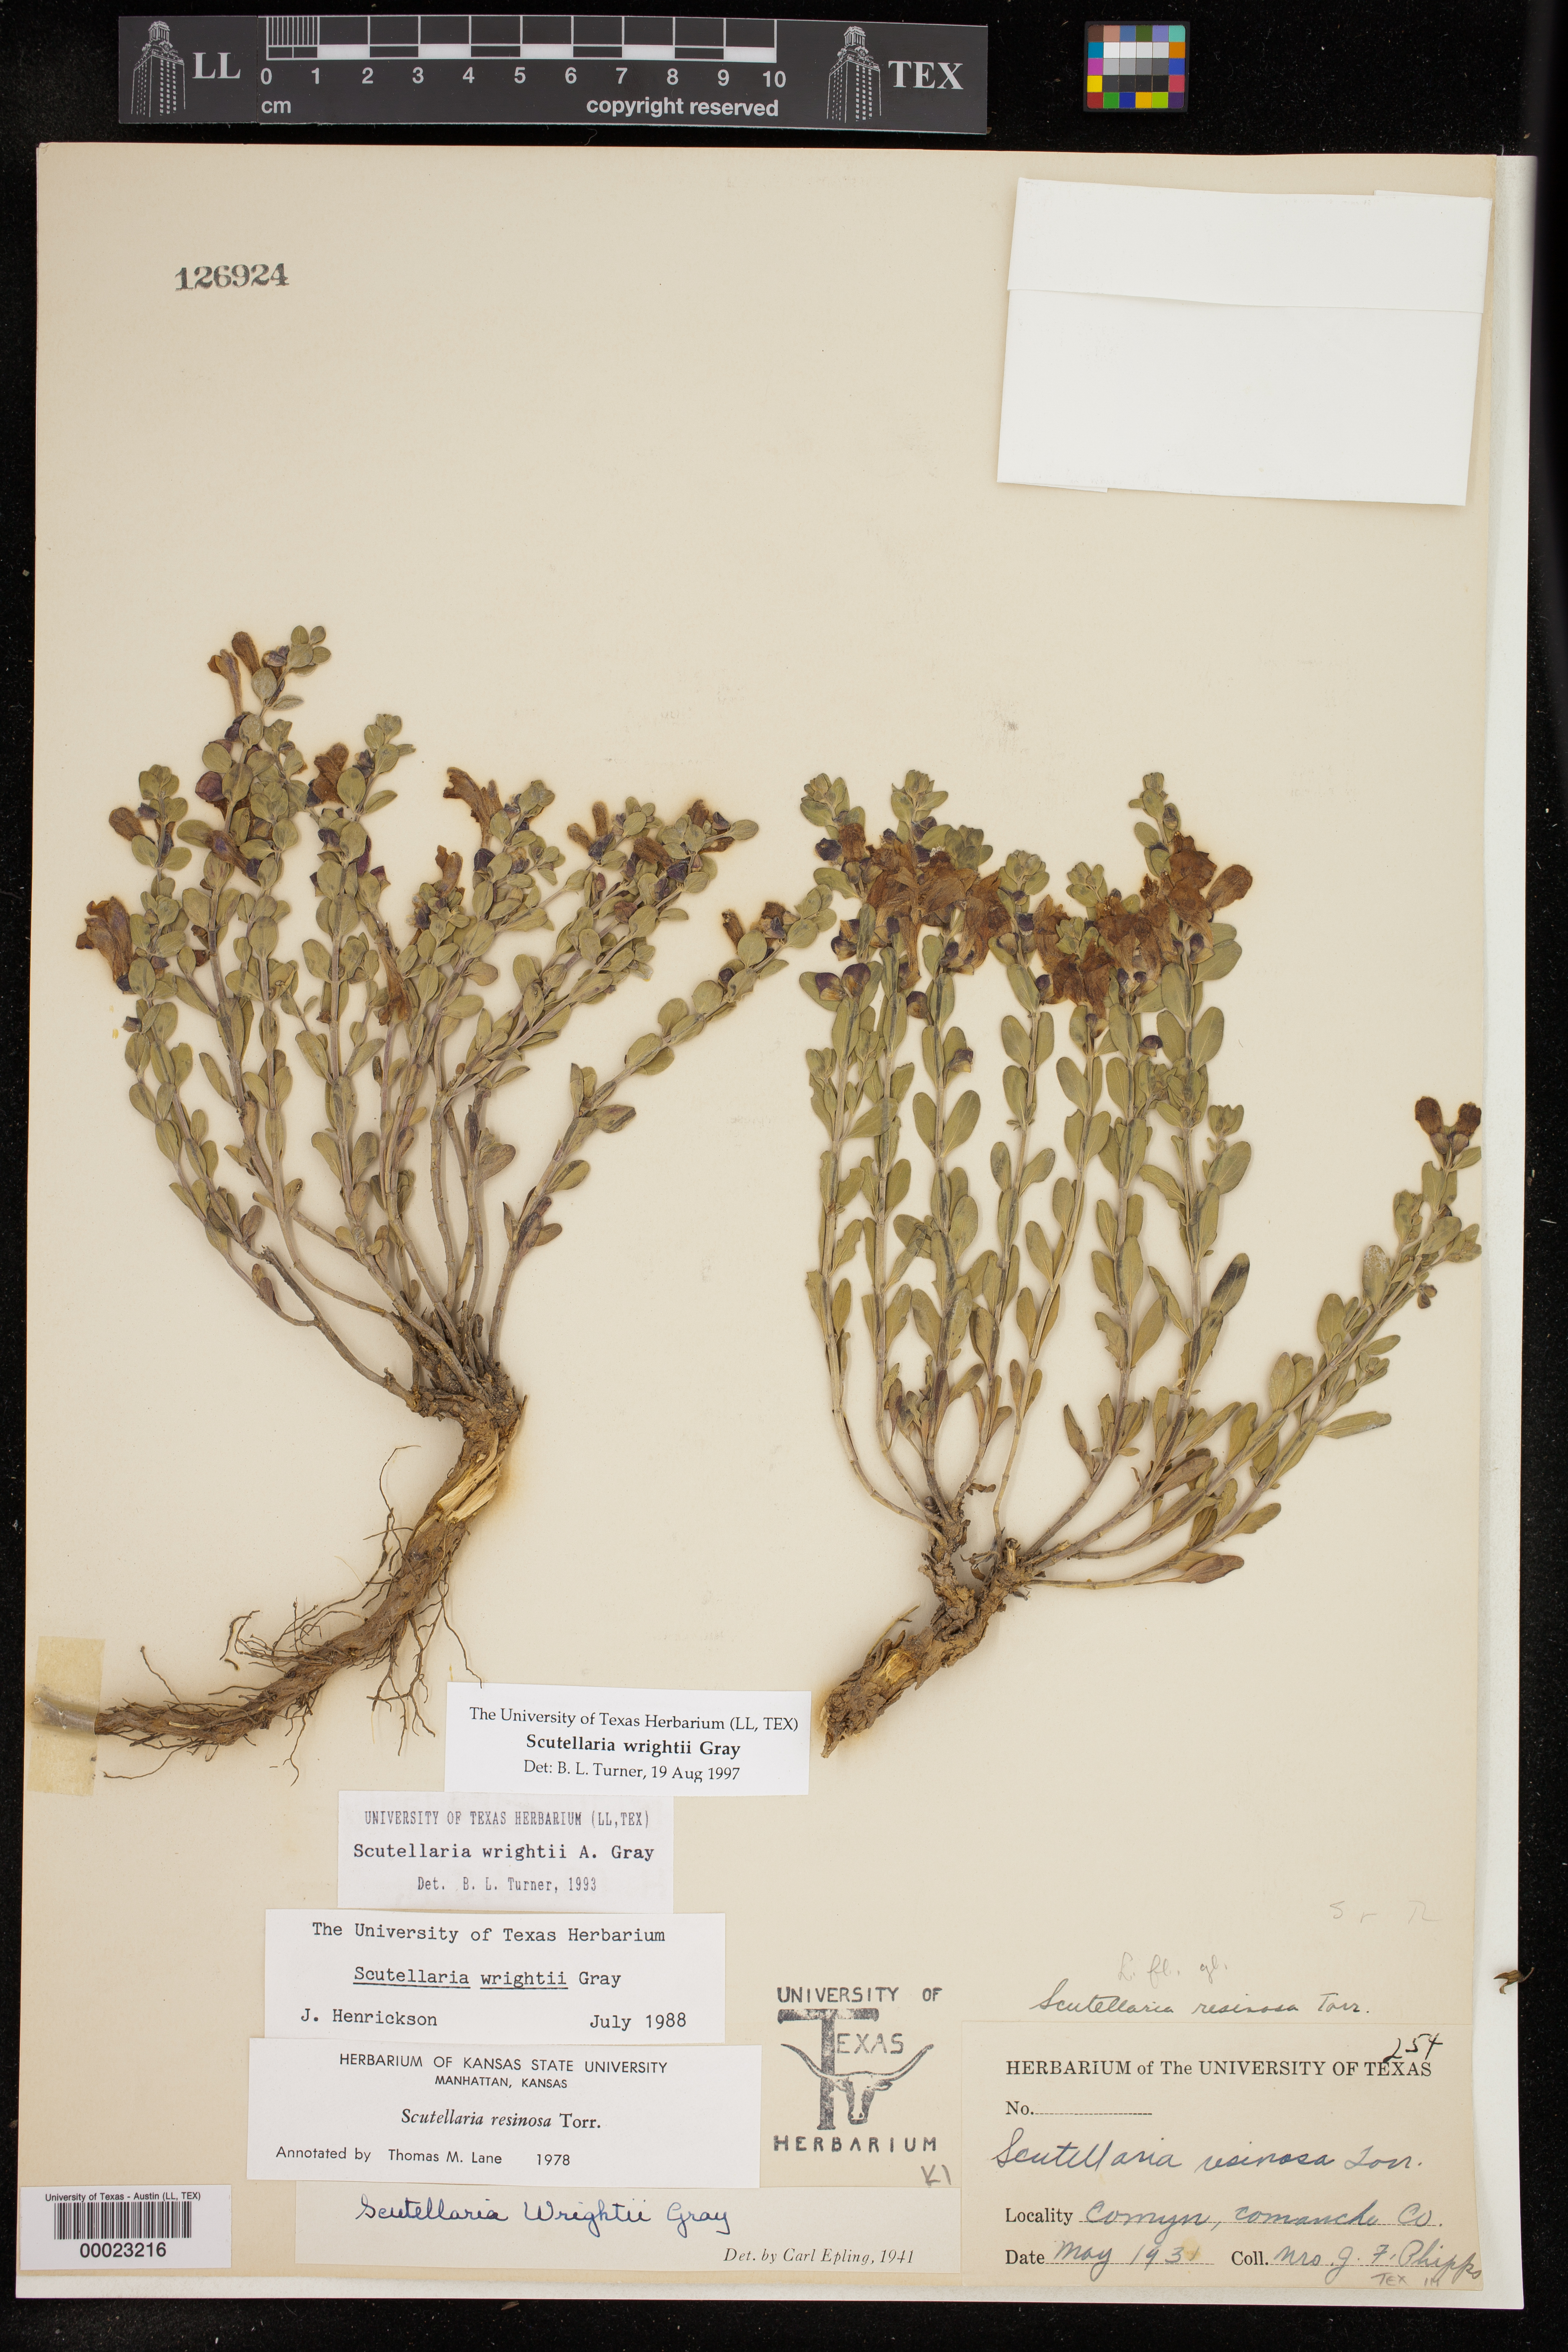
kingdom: Plantae
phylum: Tracheophyta
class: Magnoliopsida
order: Lamiales
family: Lamiaceae
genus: Scutellaria
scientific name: Scutellaria wrightii
